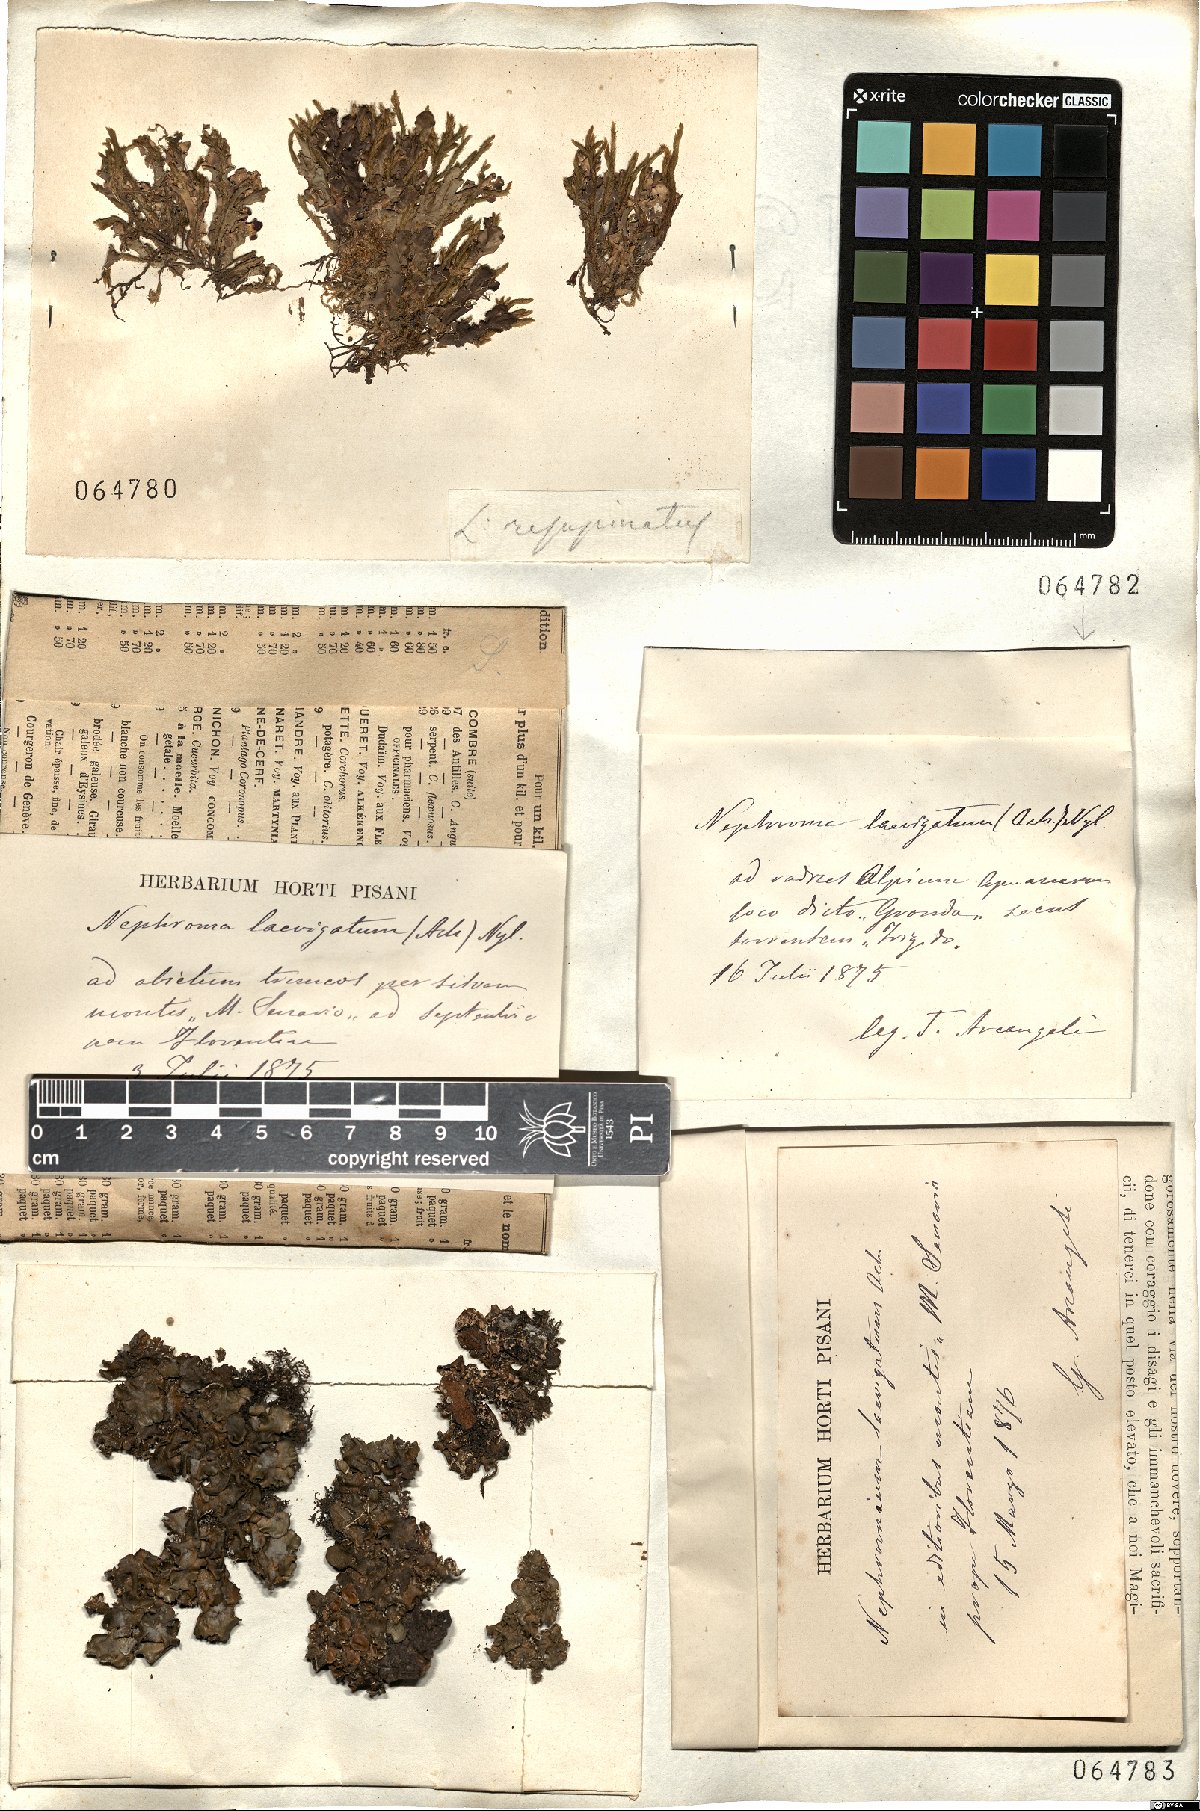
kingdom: Fungi
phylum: Ascomycota
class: Lecanoromycetes
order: Peltigerales
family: Nephromataceae
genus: Nephroma
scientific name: Nephroma laevigatum
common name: Mustard kidney lichen
